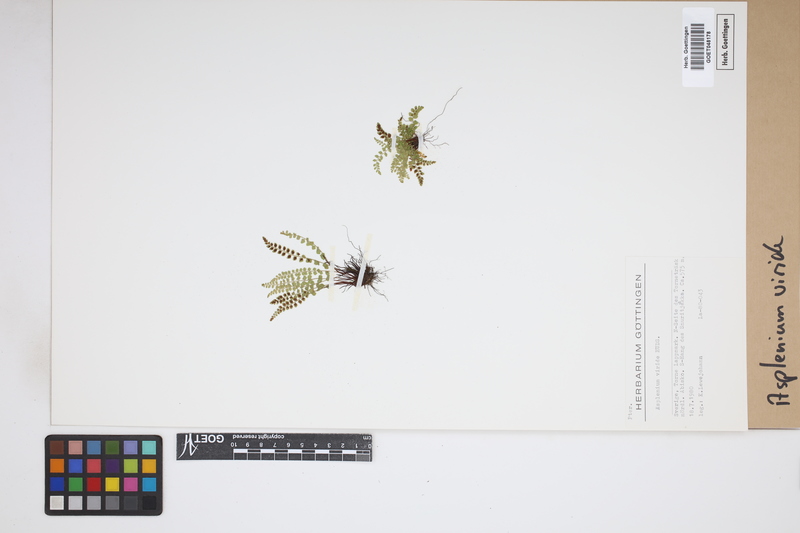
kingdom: Plantae
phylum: Tracheophyta
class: Polypodiopsida
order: Polypodiales
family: Aspleniaceae
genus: Asplenium
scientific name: Asplenium viride
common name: Green spleenwort
